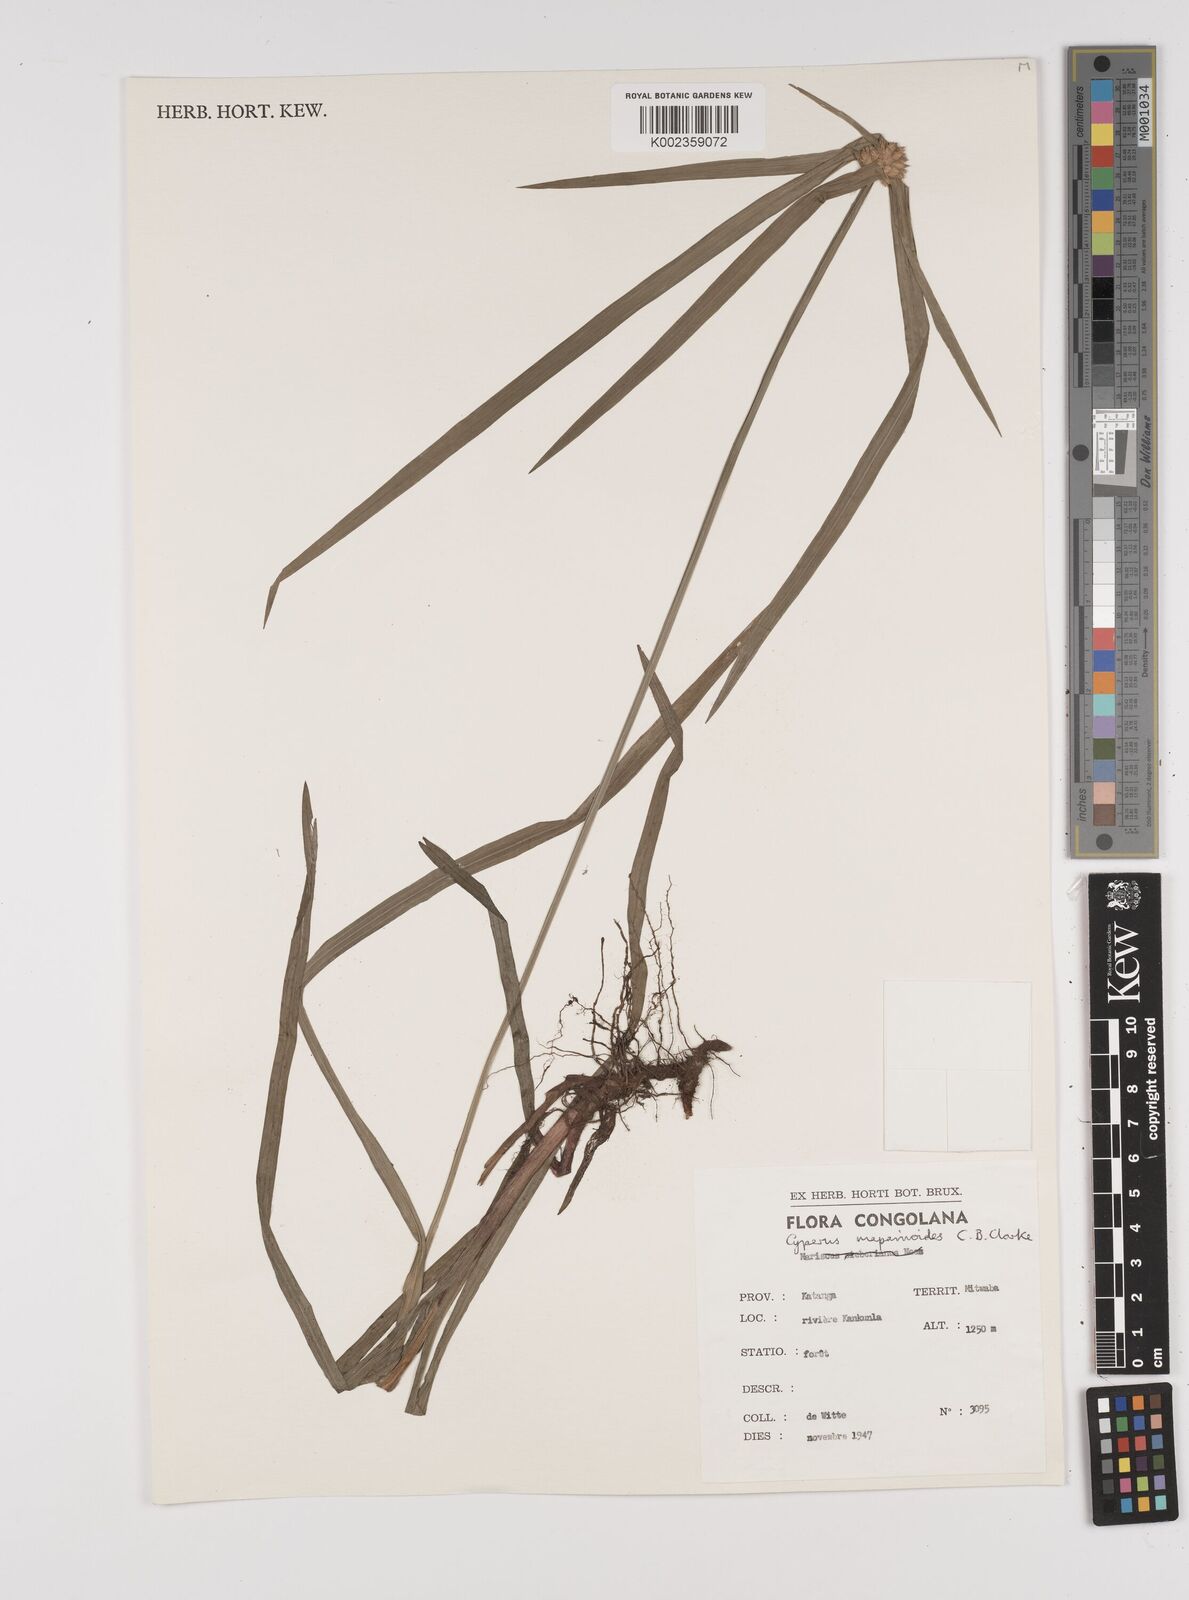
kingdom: Plantae
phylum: Tracheophyta
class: Liliopsida
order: Poales
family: Cyperaceae
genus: Cyperus
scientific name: Cyperus mapanioides
